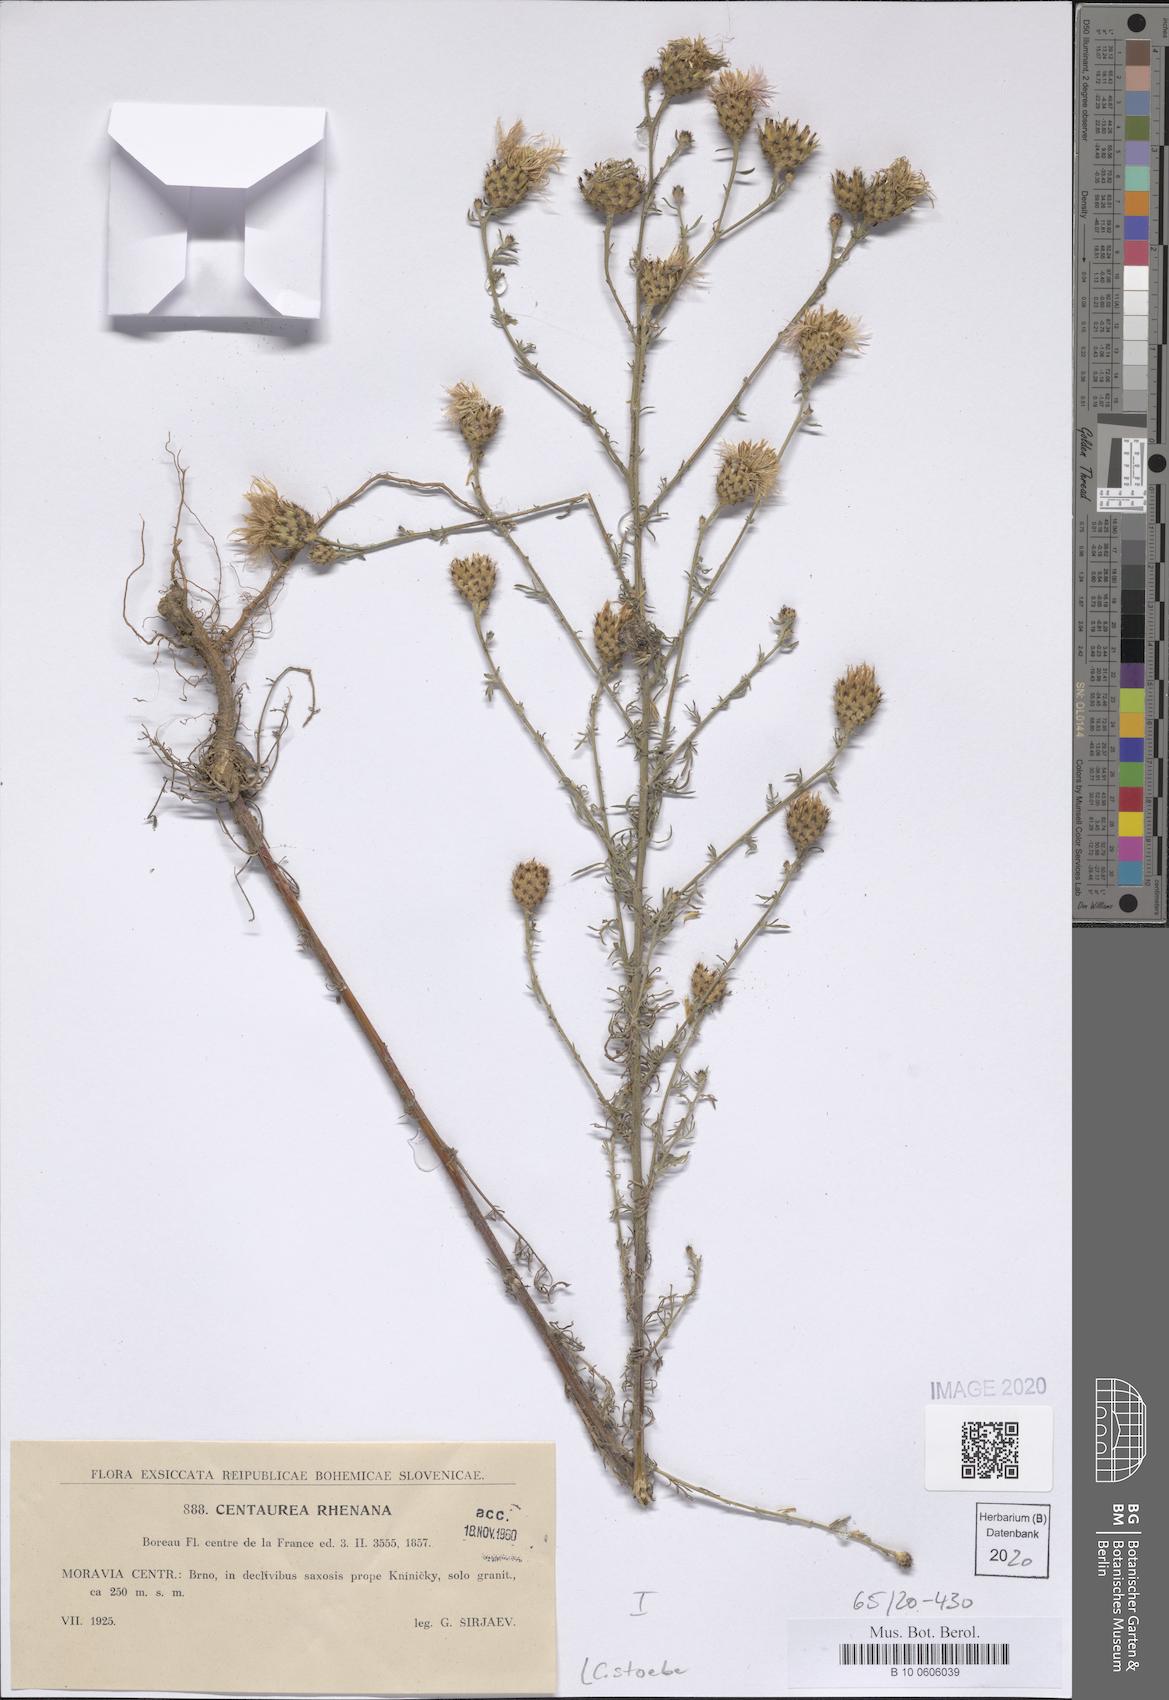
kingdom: Plantae
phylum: Tracheophyta
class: Magnoliopsida
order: Asterales
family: Asteraceae
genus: Centaurea
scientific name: Centaurea stoebe
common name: Spotted knapweed
